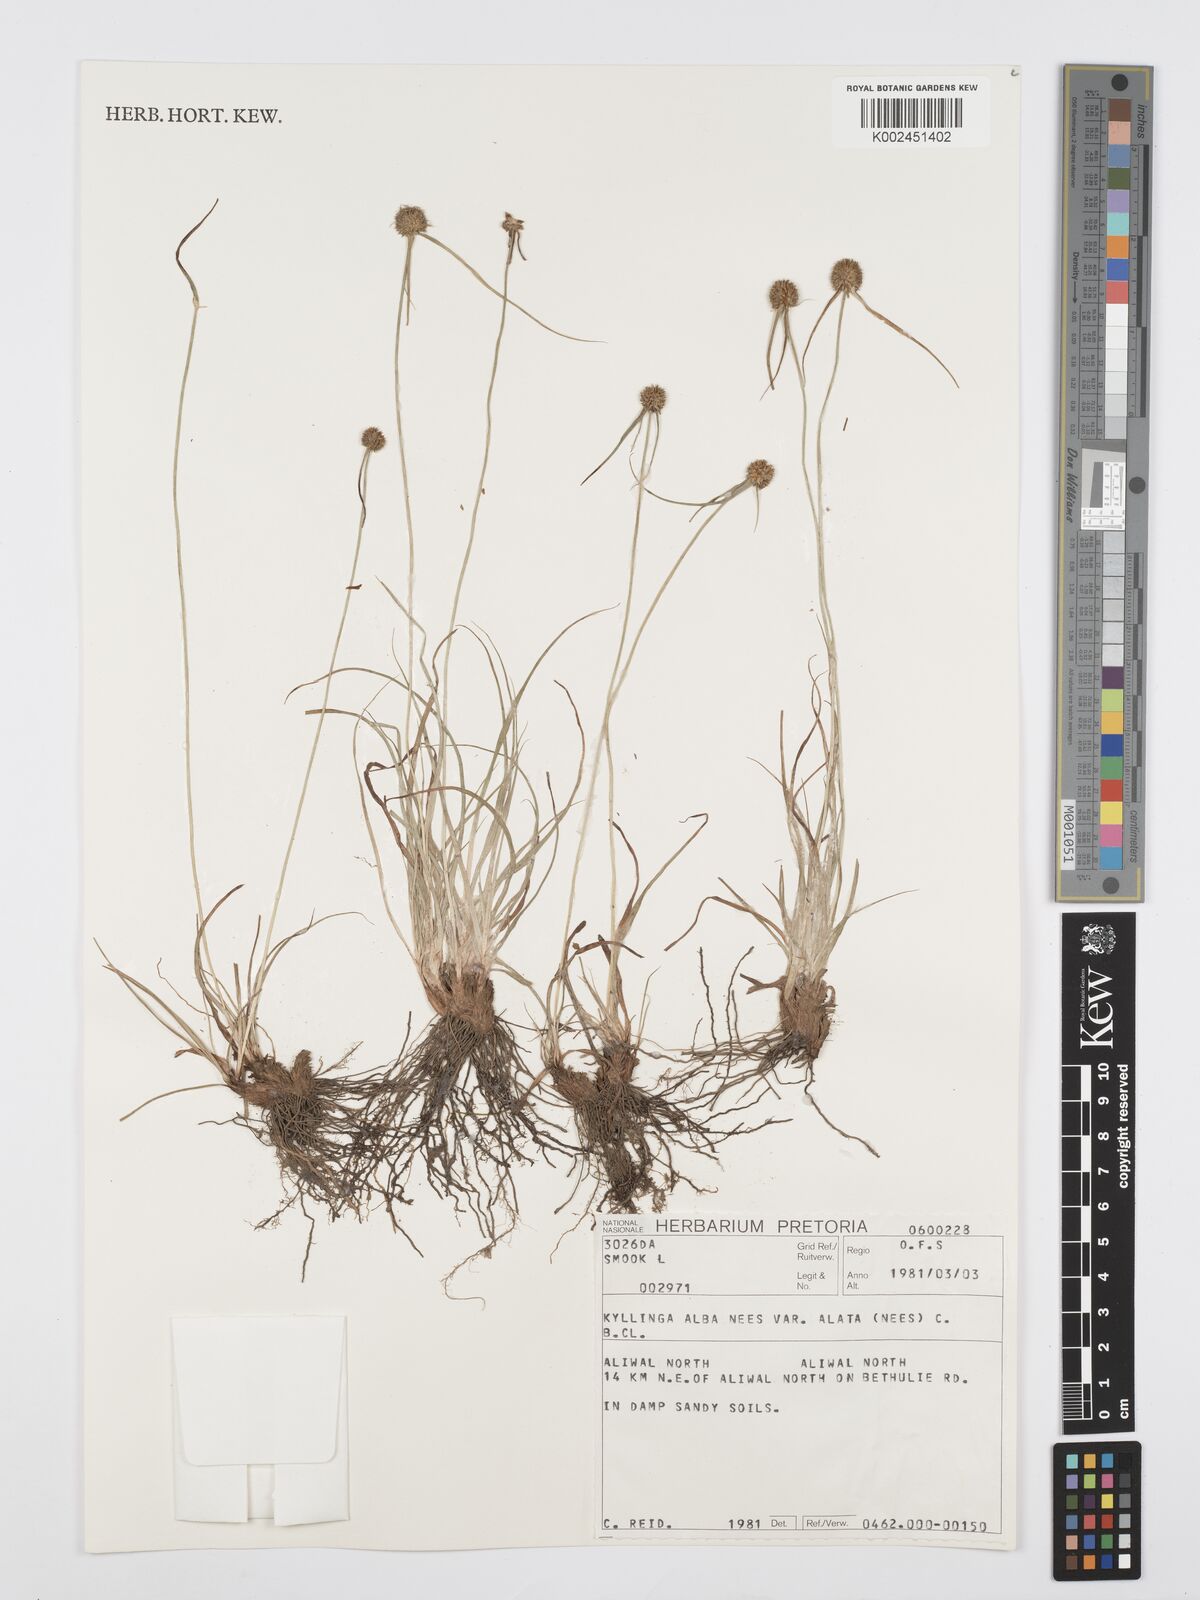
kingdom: Plantae
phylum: Tracheophyta
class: Liliopsida
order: Poales
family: Cyperaceae
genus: Cyperus
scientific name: Cyperus alatus
